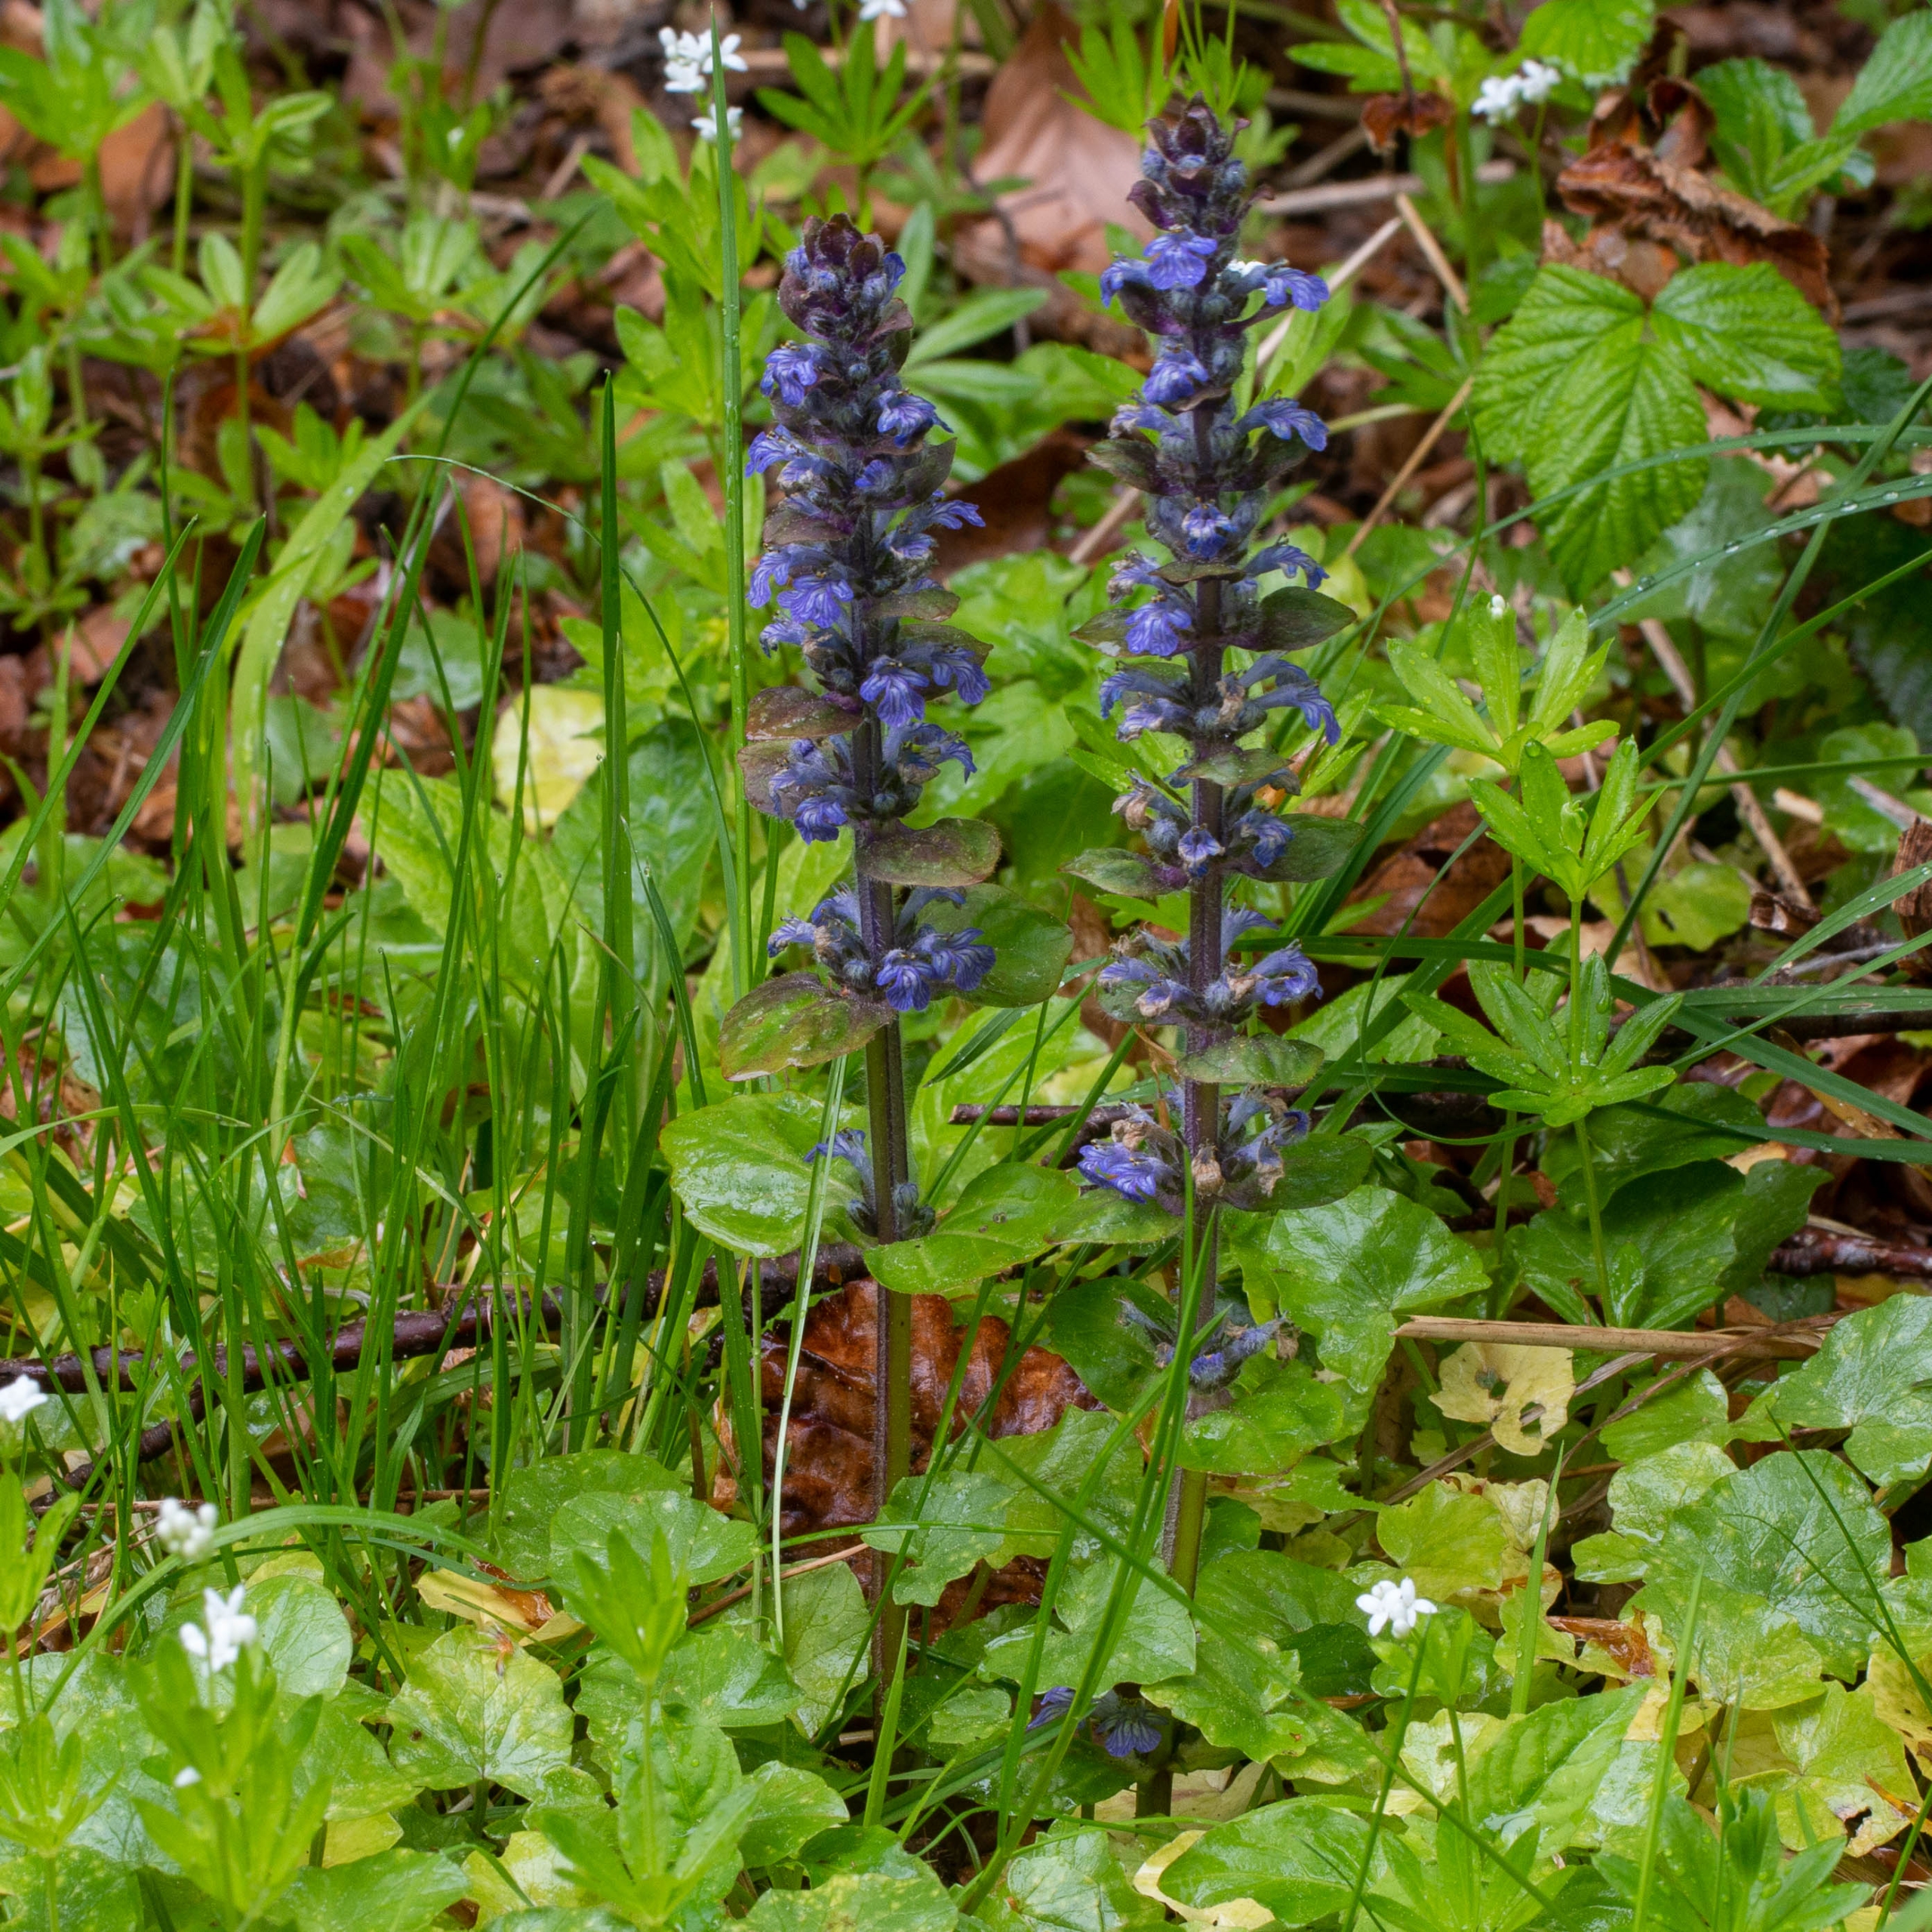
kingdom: Plantae
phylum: Tracheophyta
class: Magnoliopsida
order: Lamiales
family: Lamiaceae
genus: Ajuga
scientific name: Ajuga reptans
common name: Krybende læbeløs
